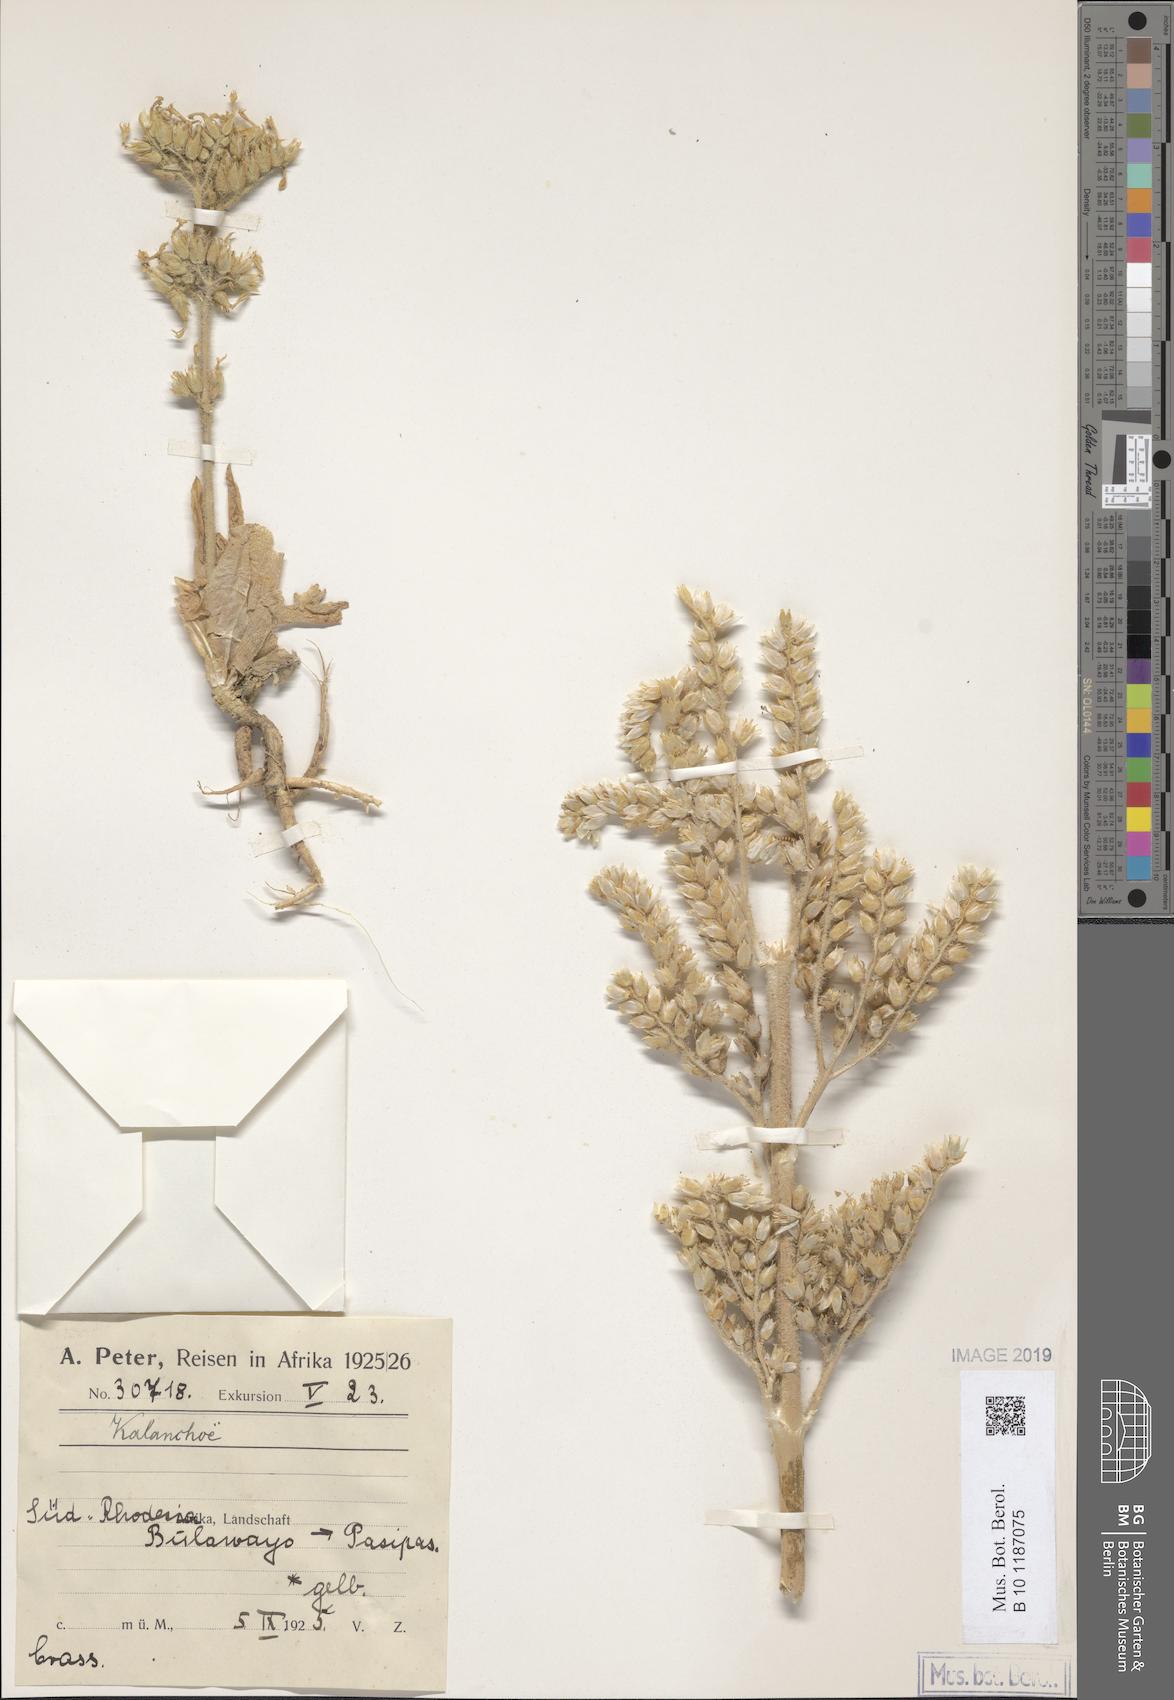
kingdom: Plantae
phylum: Tracheophyta
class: Magnoliopsida
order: Saxifragales
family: Crassulaceae
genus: Kalanchoe
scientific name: Kalanchoe
